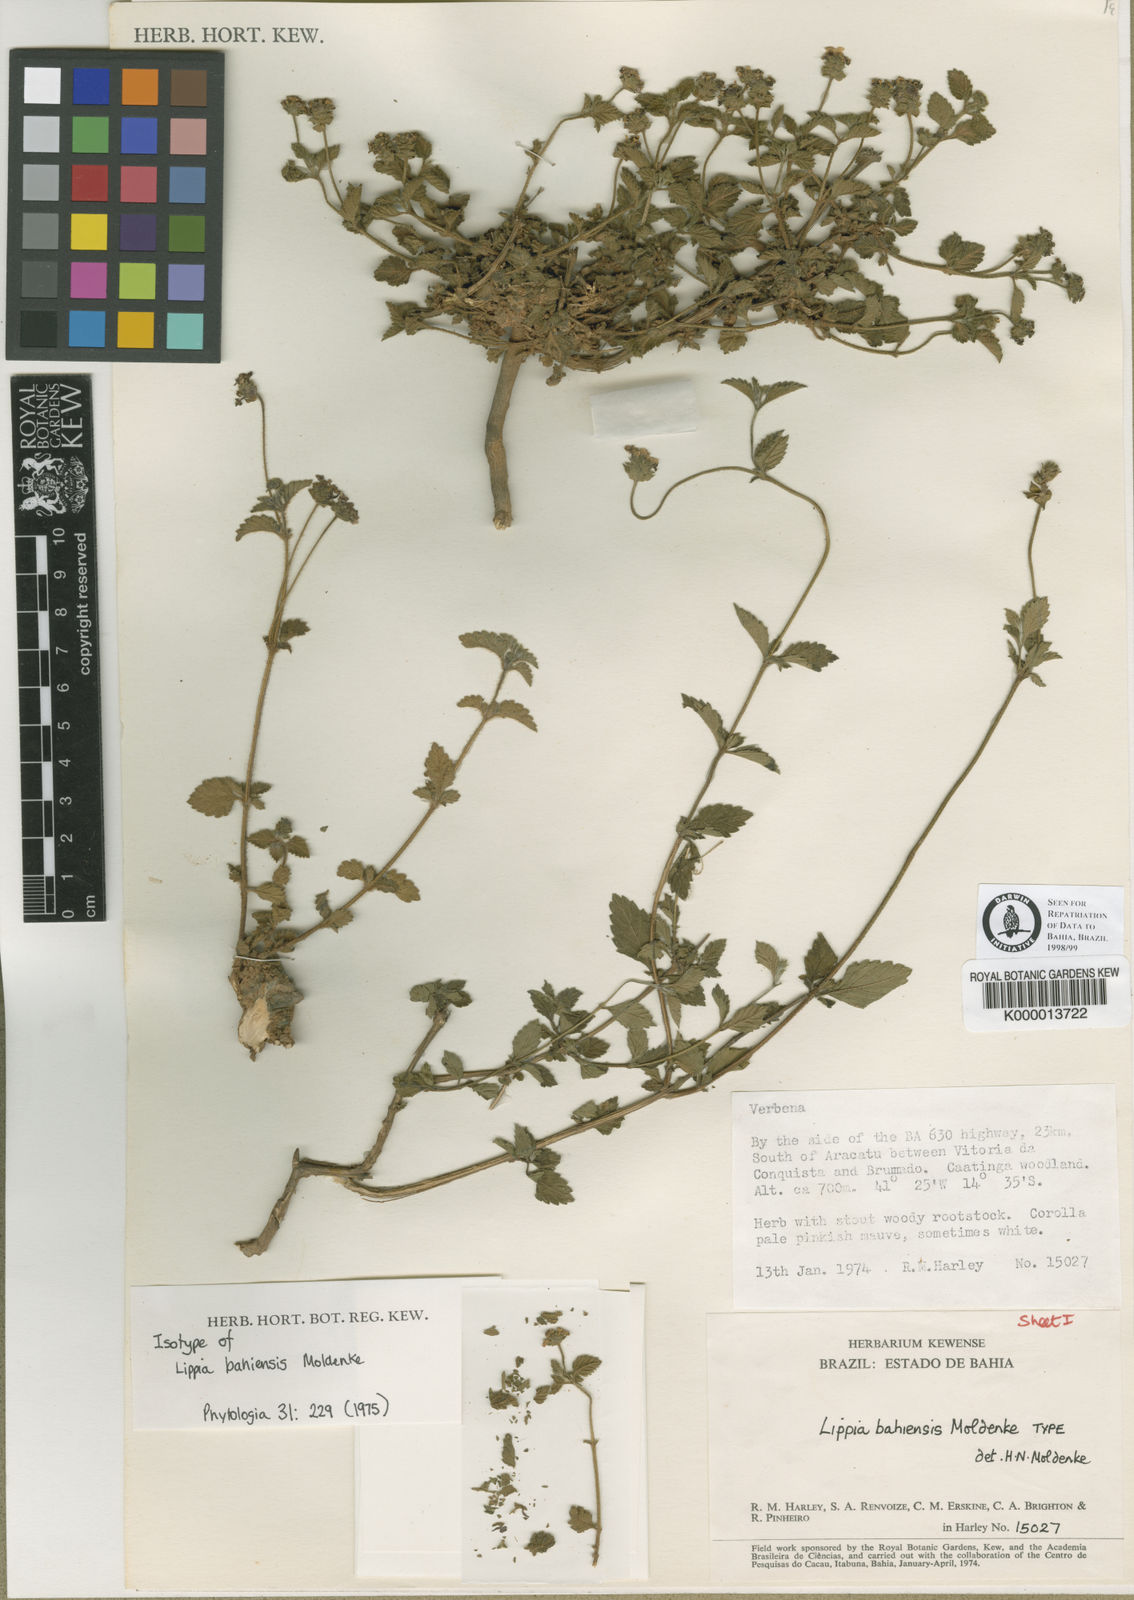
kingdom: Plantae
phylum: Tracheophyta
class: Magnoliopsida
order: Lamiales
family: Verbenaceae
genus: Lantana
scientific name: Lantana gracilis
